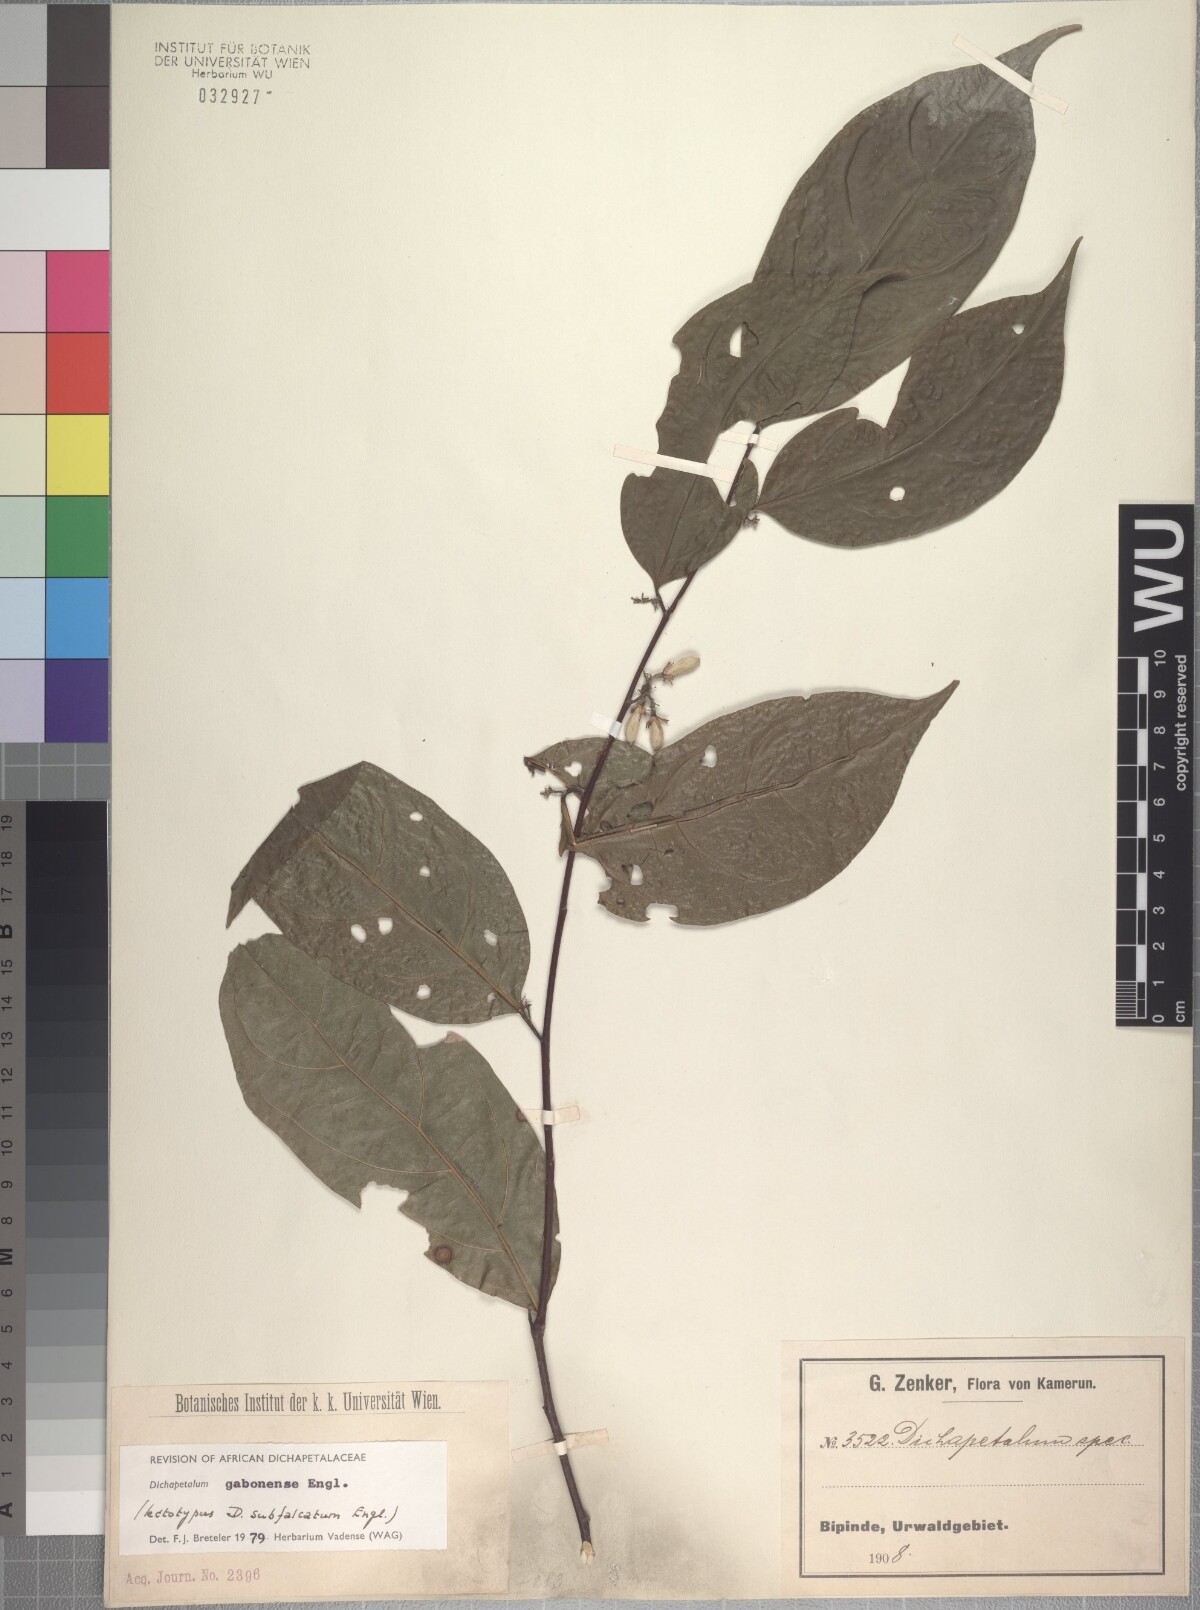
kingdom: Plantae
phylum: Tracheophyta
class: Magnoliopsida
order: Malpighiales
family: Dichapetalaceae
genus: Dichapetalum
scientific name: Dichapetalum gabonense
